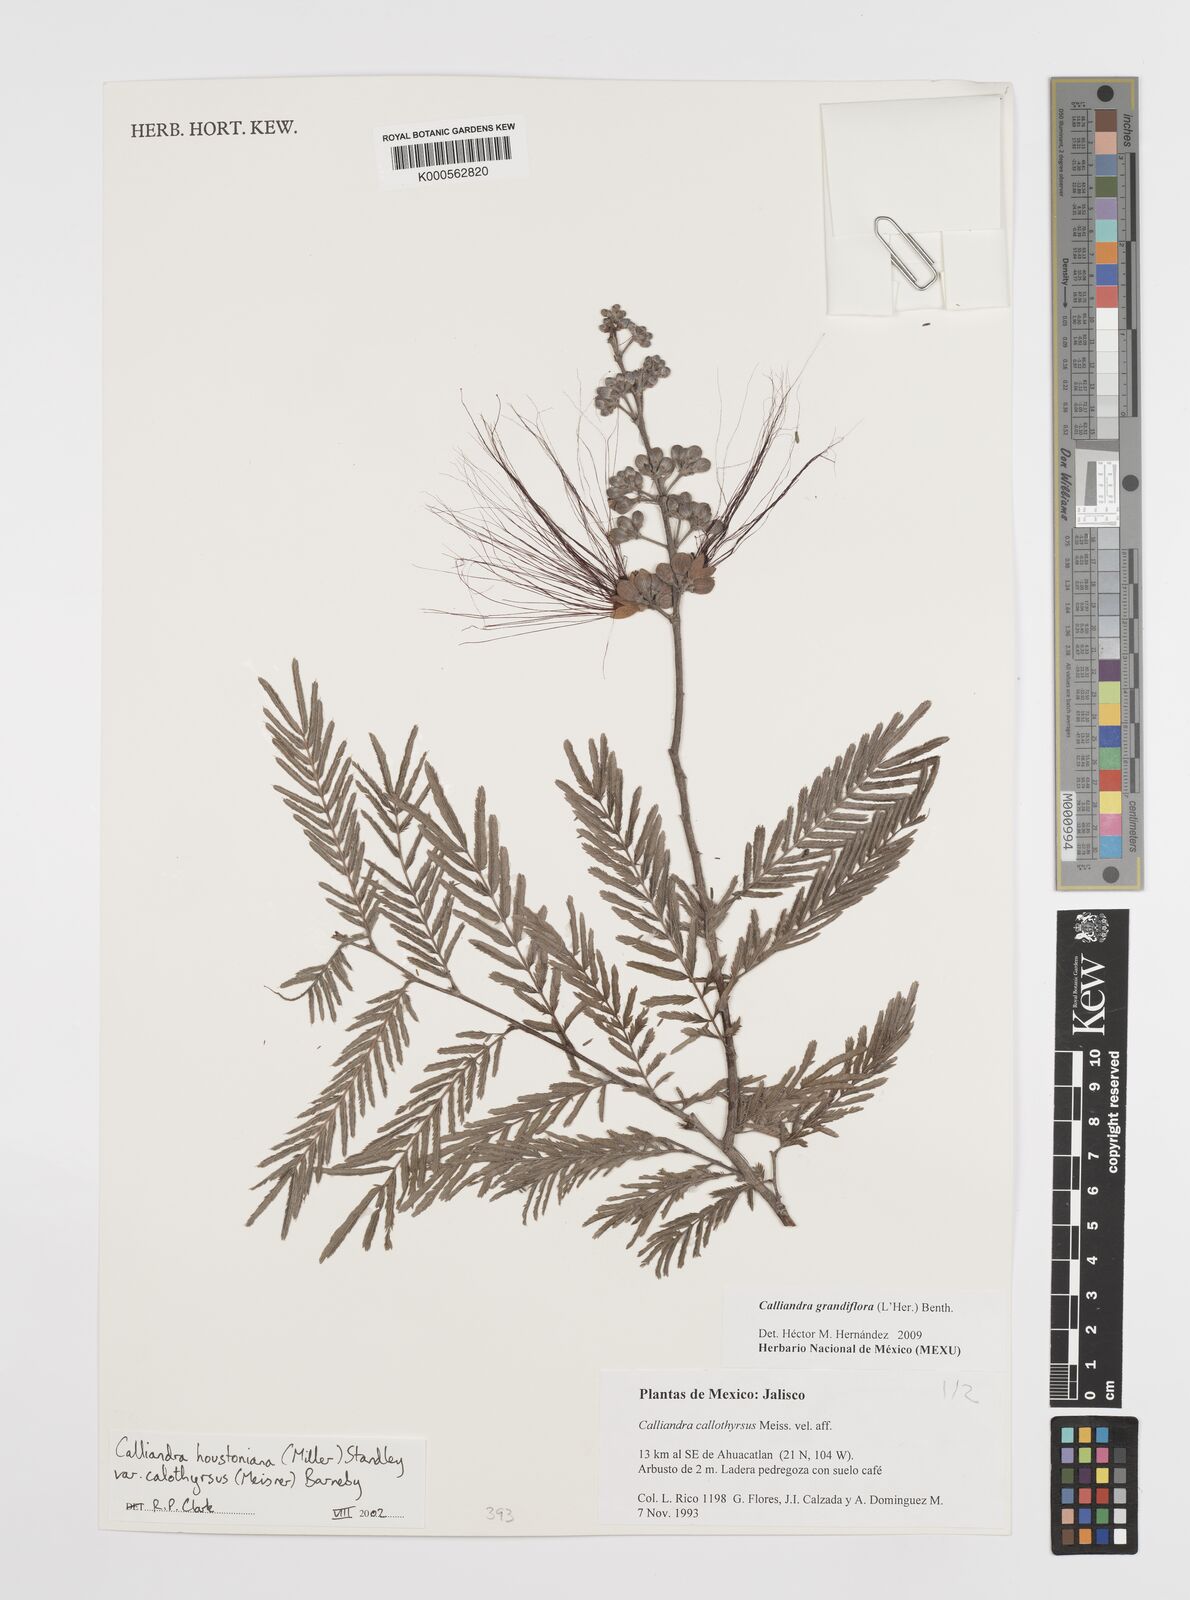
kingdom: Plantae
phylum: Tracheophyta
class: Magnoliopsida
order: Fabales
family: Fabaceae
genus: Calliandra
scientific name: Calliandra houstoniana
